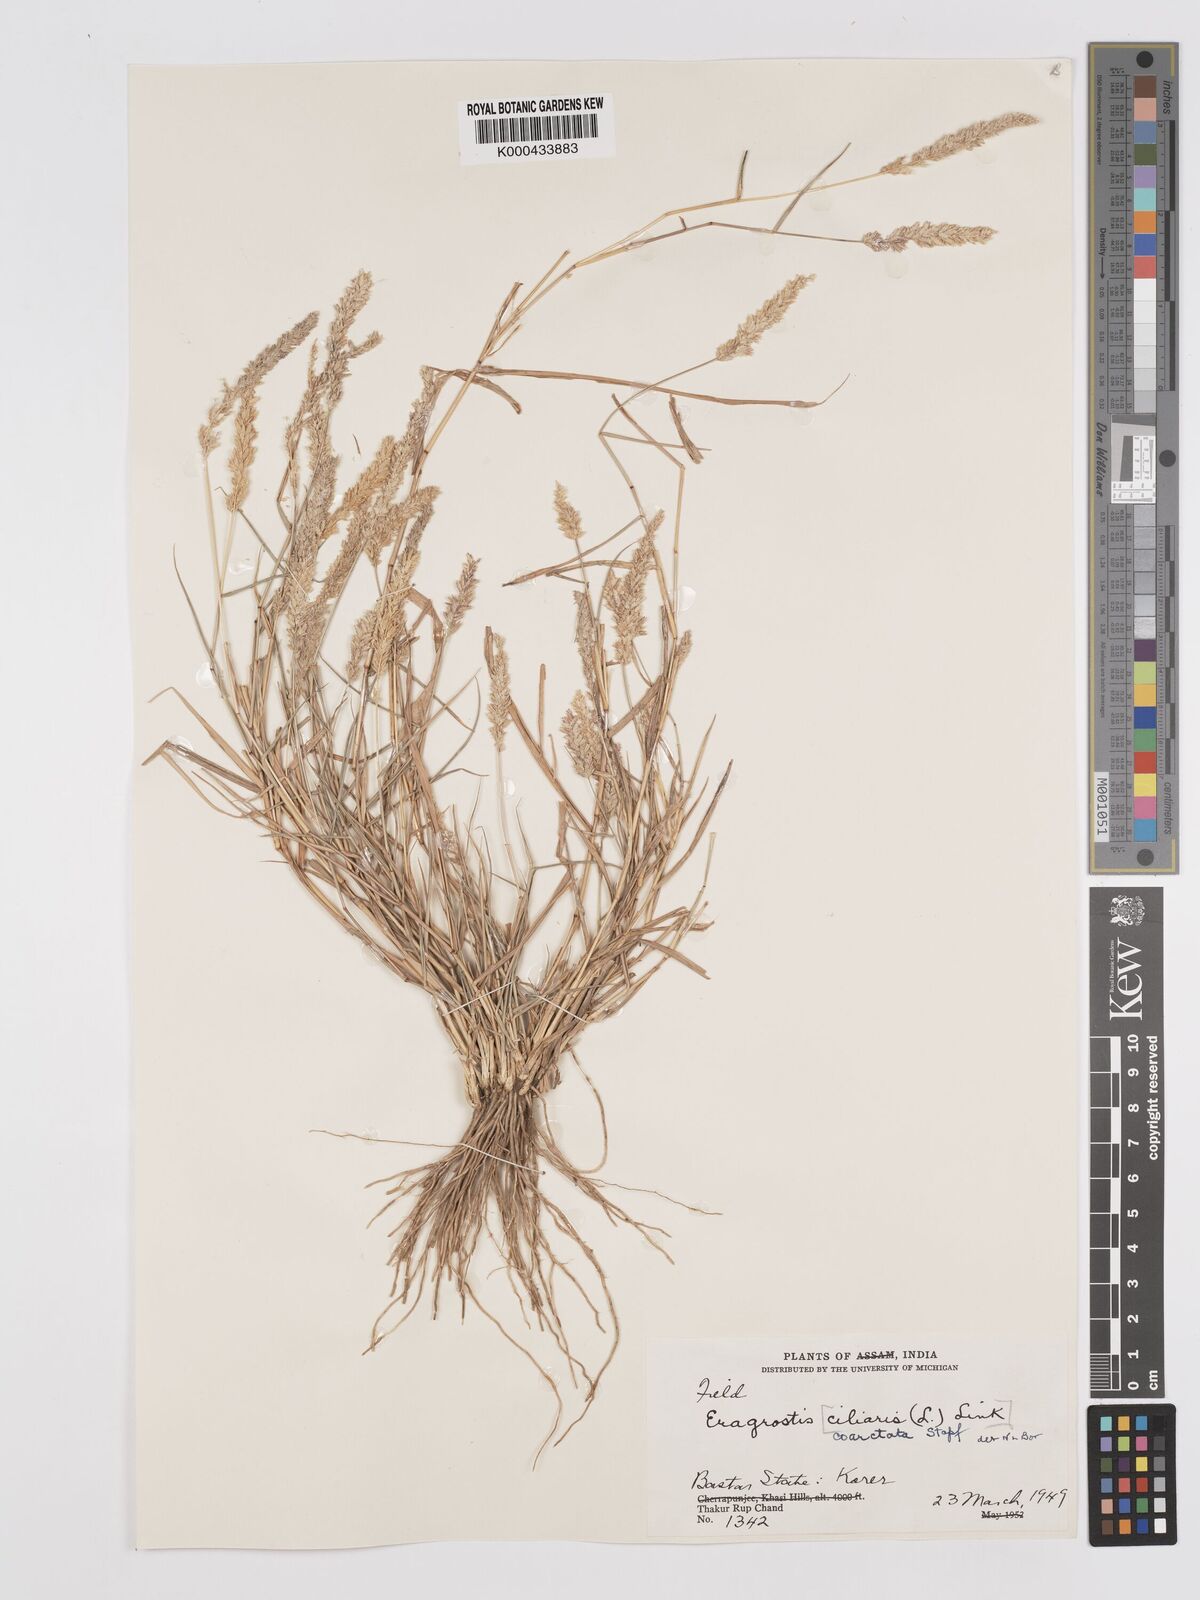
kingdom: Plantae
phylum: Tracheophyta
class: Liliopsida
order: Poales
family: Poaceae
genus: Eragrostis
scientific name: Eragrostis coarctata
